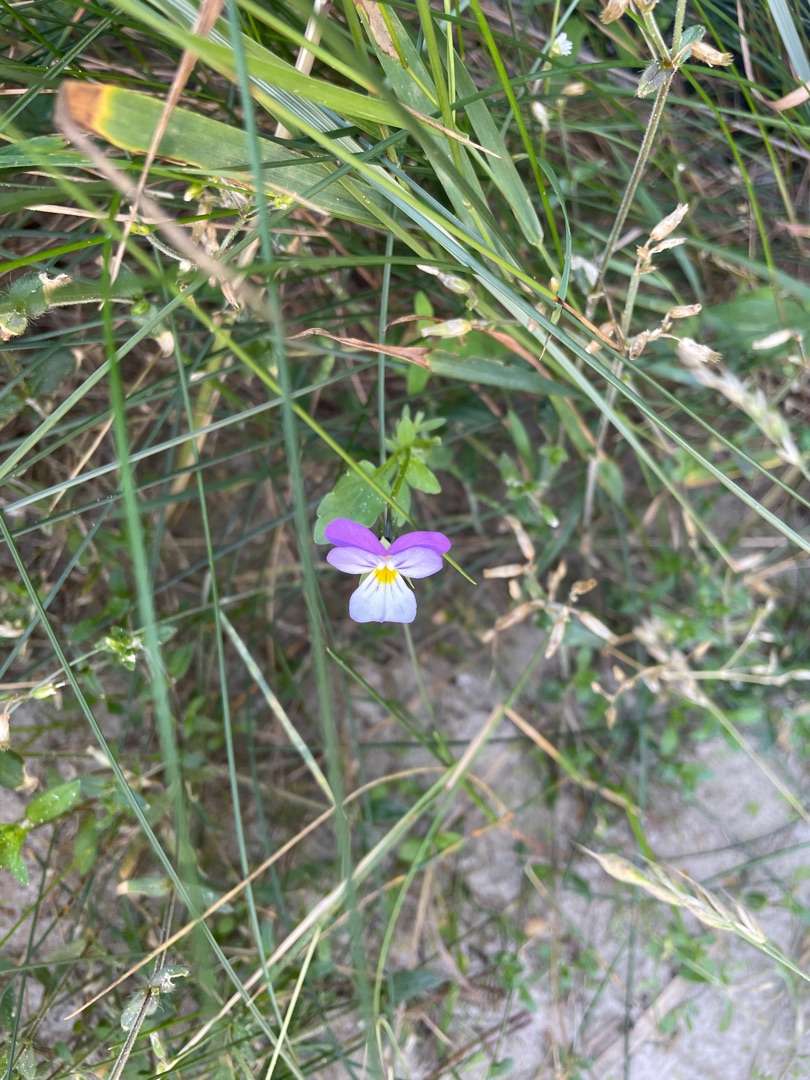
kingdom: Plantae
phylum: Tracheophyta
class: Magnoliopsida
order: Malpighiales
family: Violaceae
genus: Viola
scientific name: Viola tricolor
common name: Stedmoderblomst
